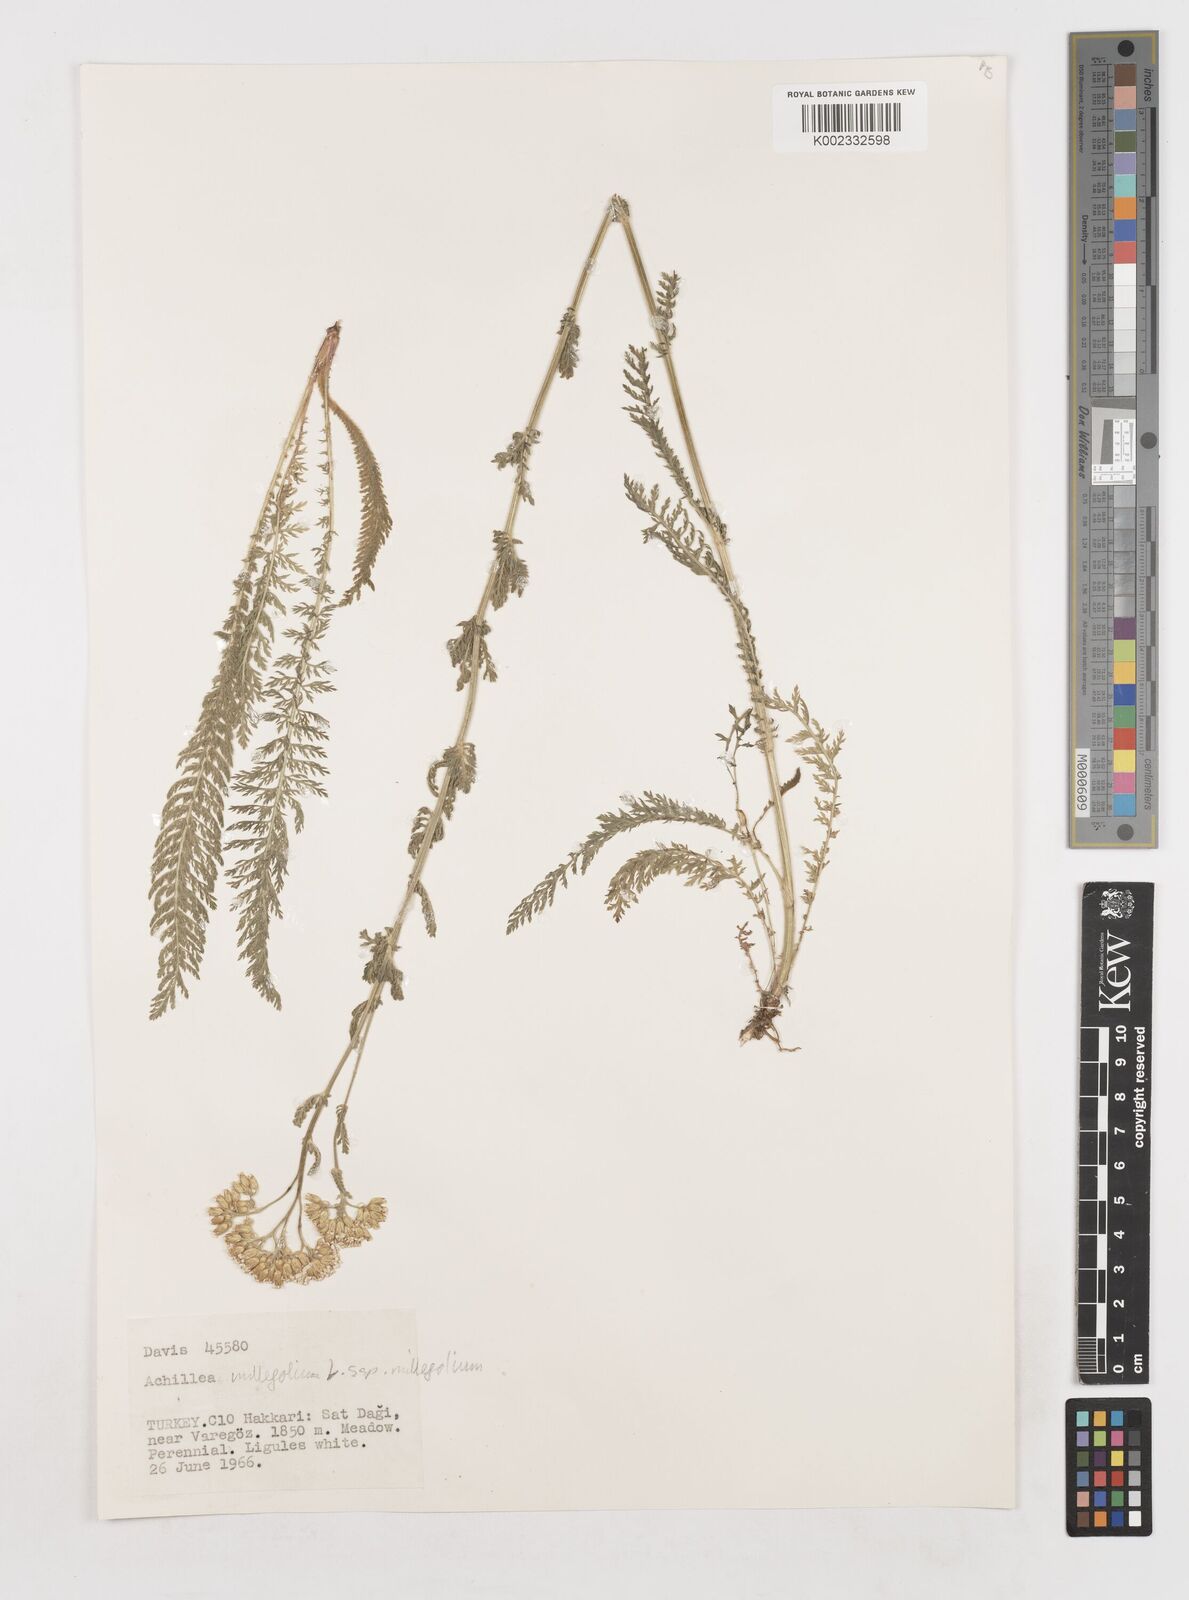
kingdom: Plantae
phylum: Tracheophyta
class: Magnoliopsida
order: Asterales
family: Asteraceae
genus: Achillea
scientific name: Achillea millefolium
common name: Yarrow
